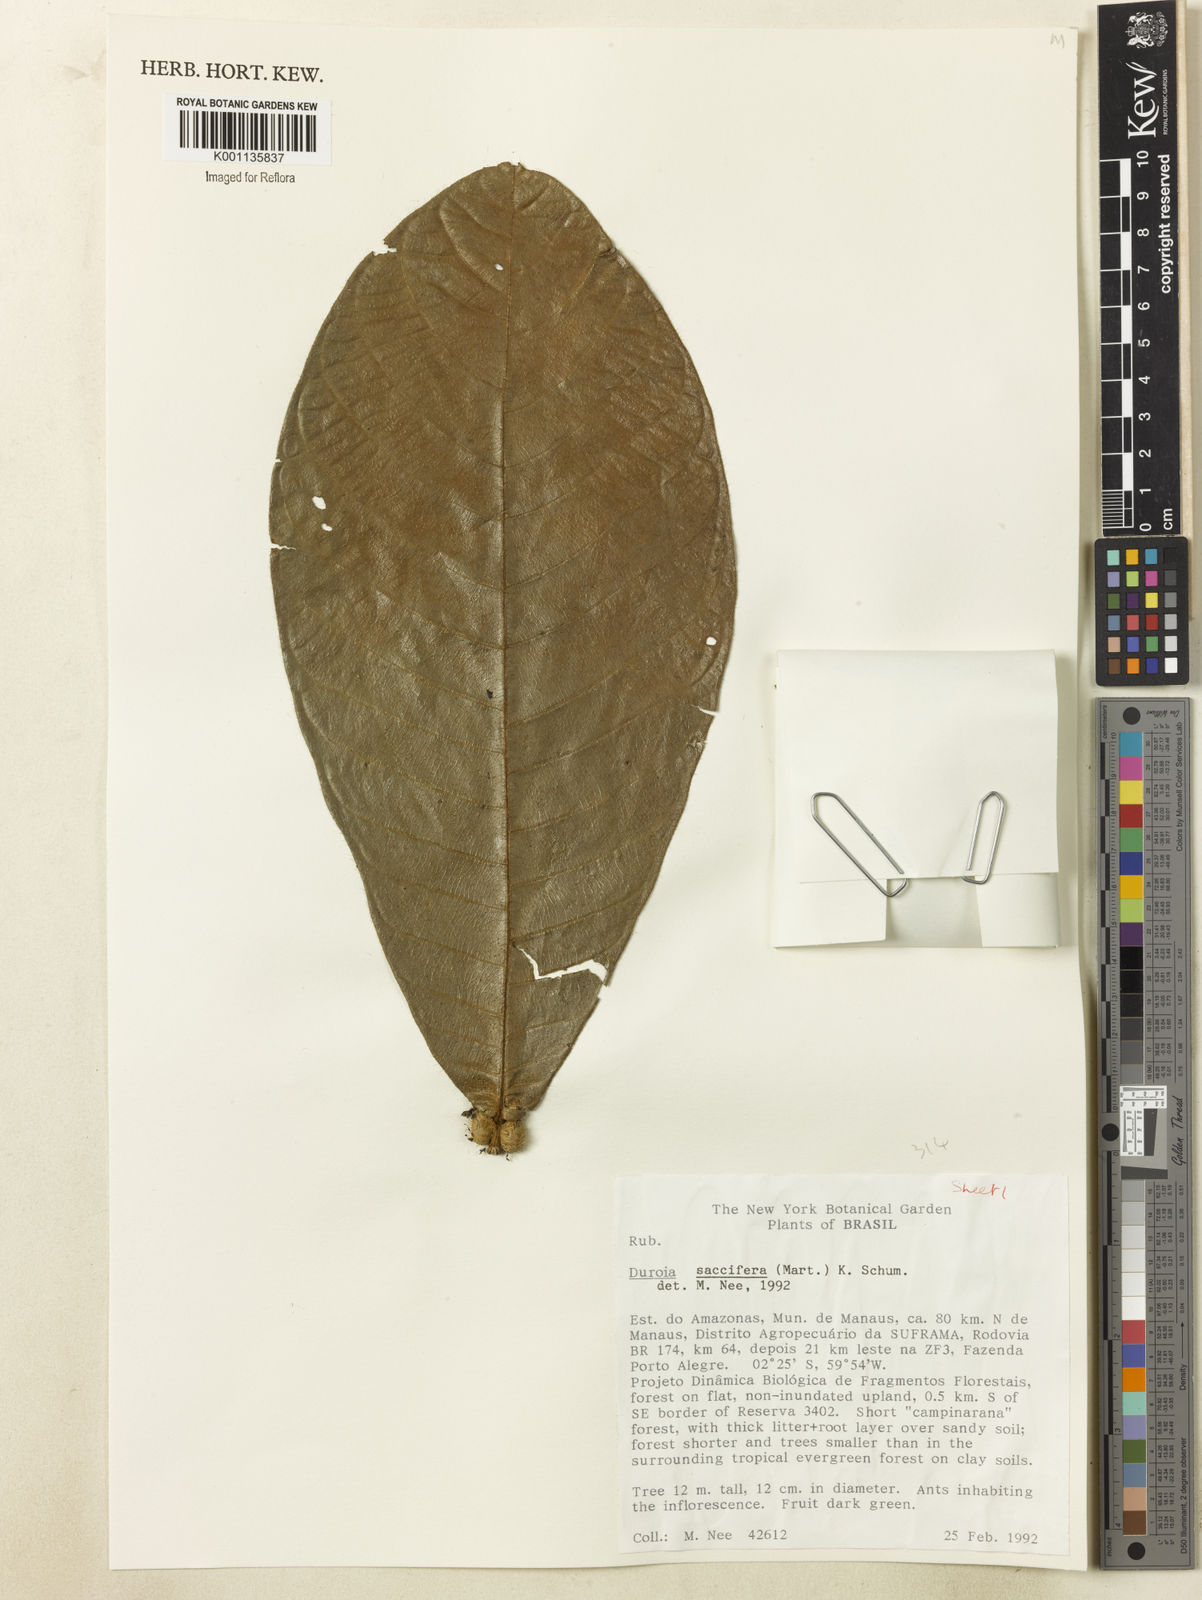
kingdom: Plantae
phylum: Tracheophyta
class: Magnoliopsida
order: Gentianales
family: Rubiaceae
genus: Duroia
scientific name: Duroia saccifera
